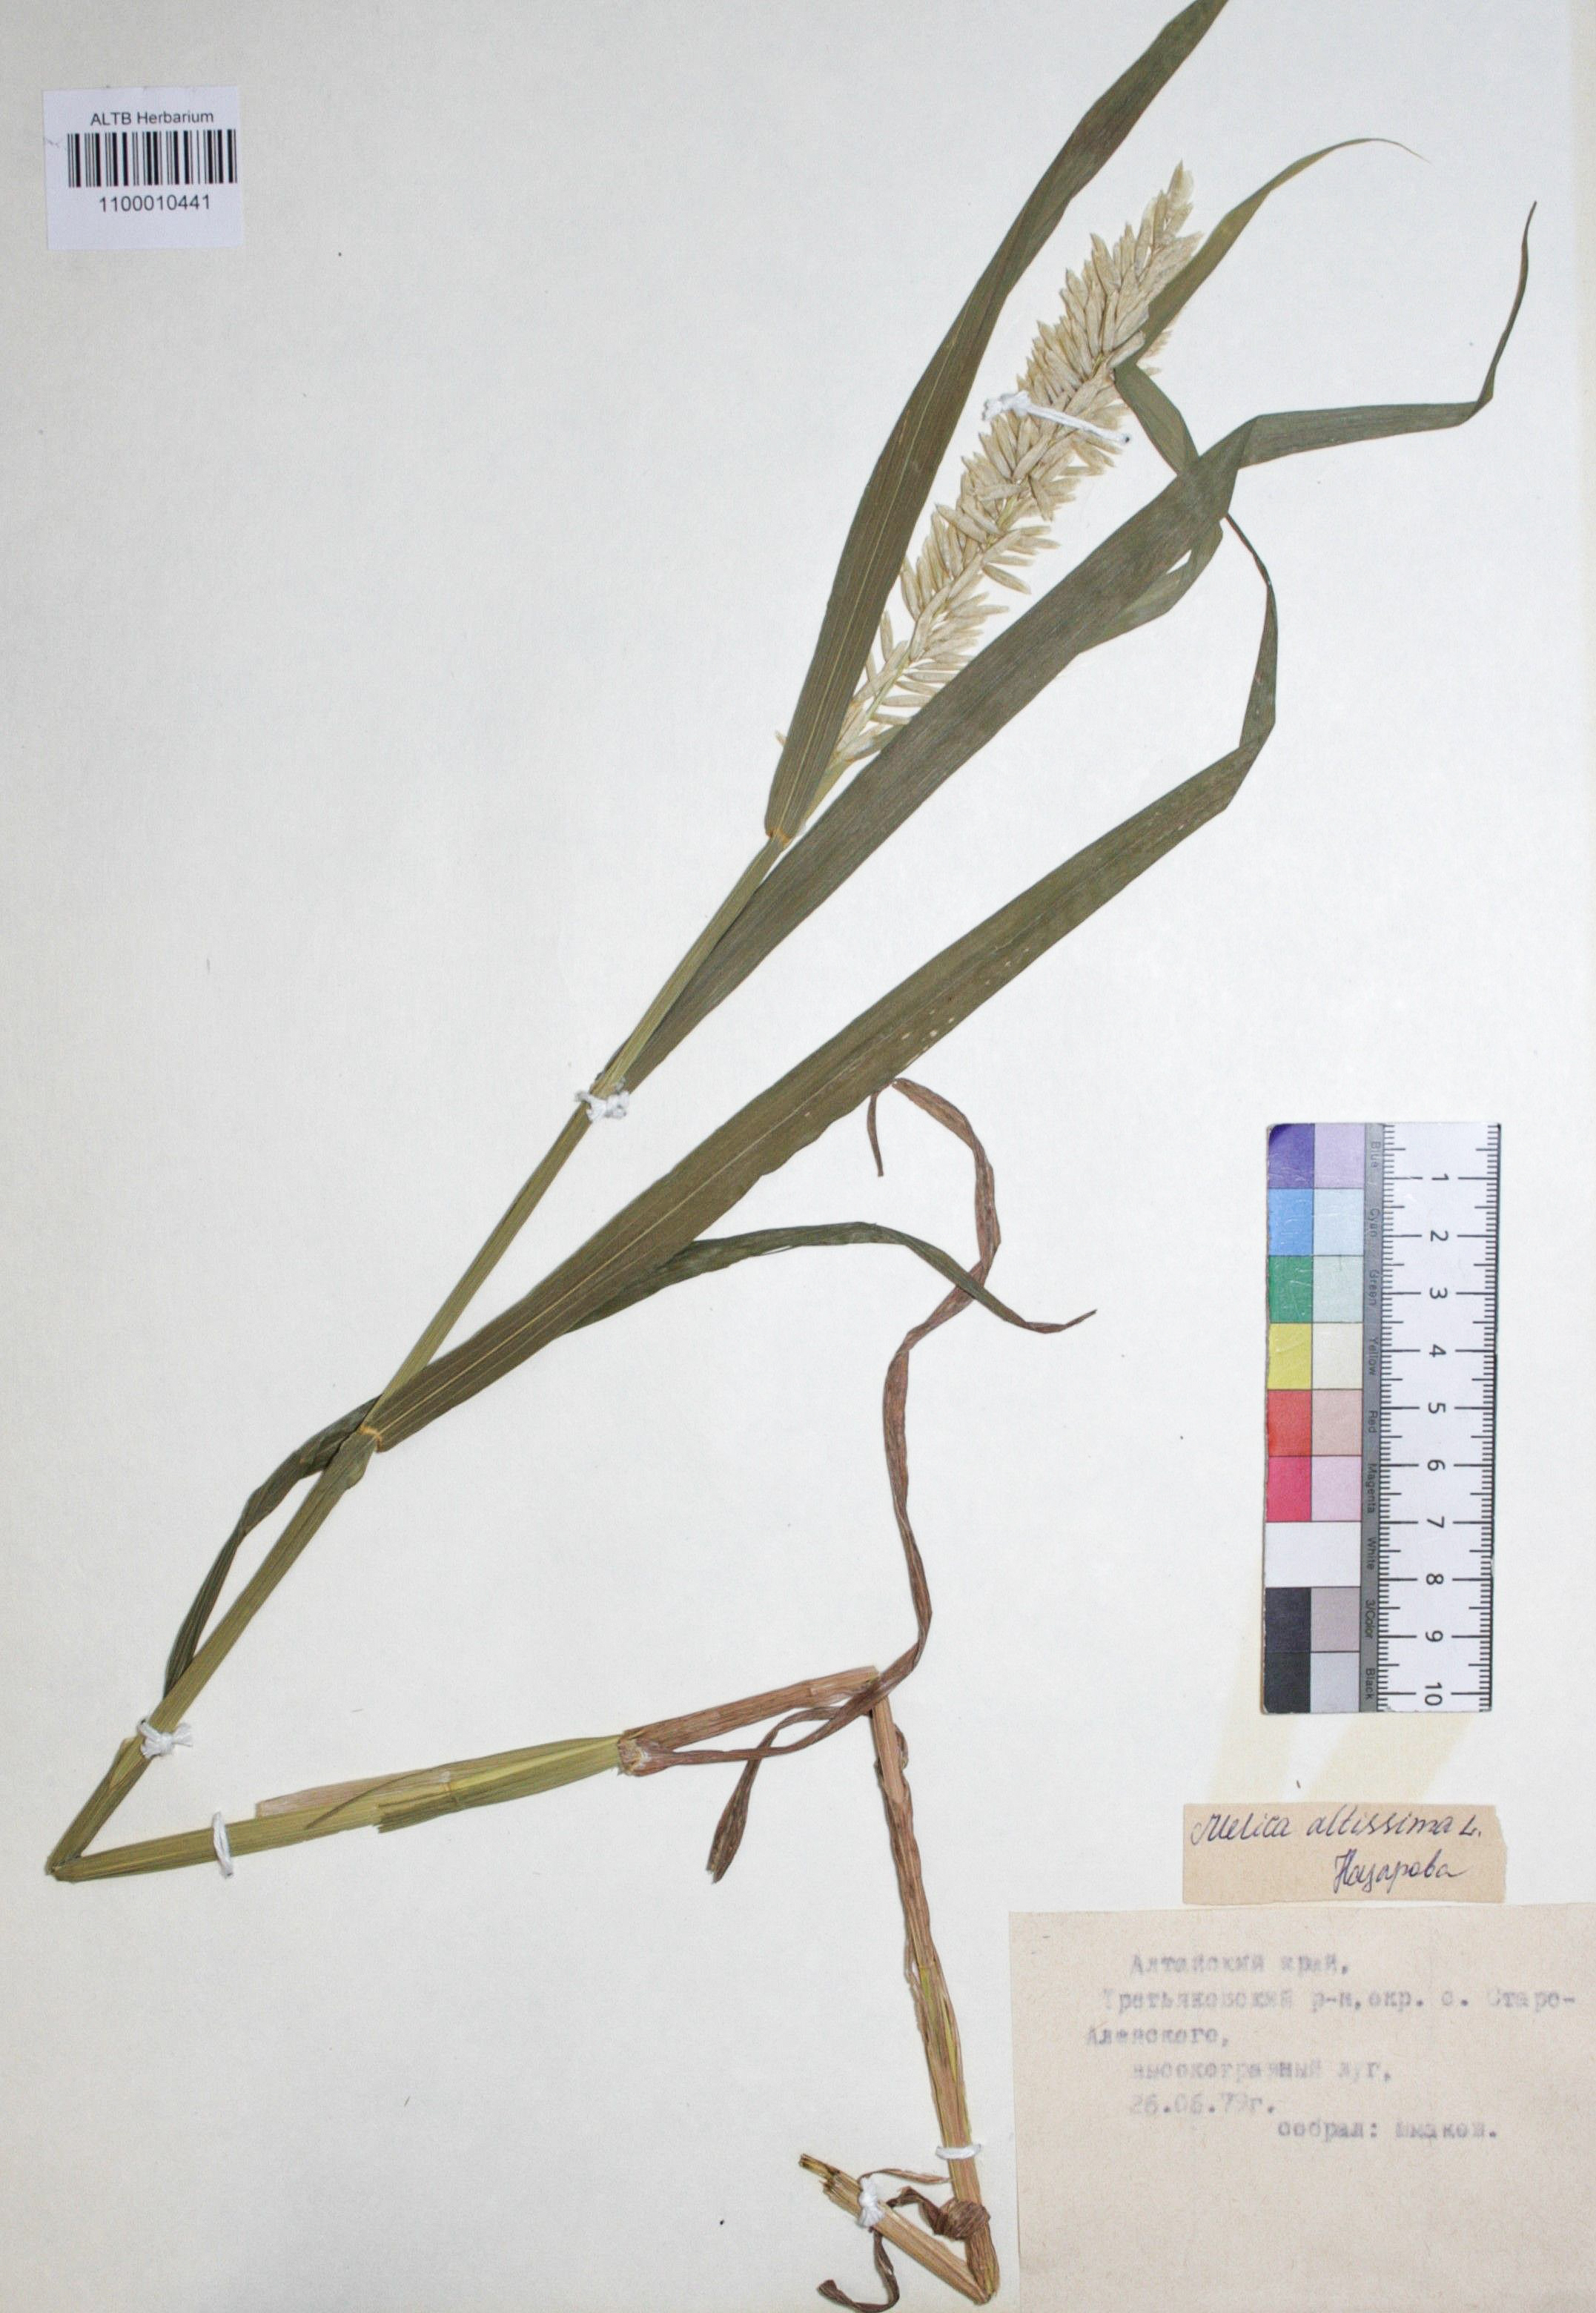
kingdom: Plantae
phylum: Tracheophyta
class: Liliopsida
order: Poales
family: Poaceae
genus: Melica
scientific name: Melica altissima
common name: Siberian melicgrass
